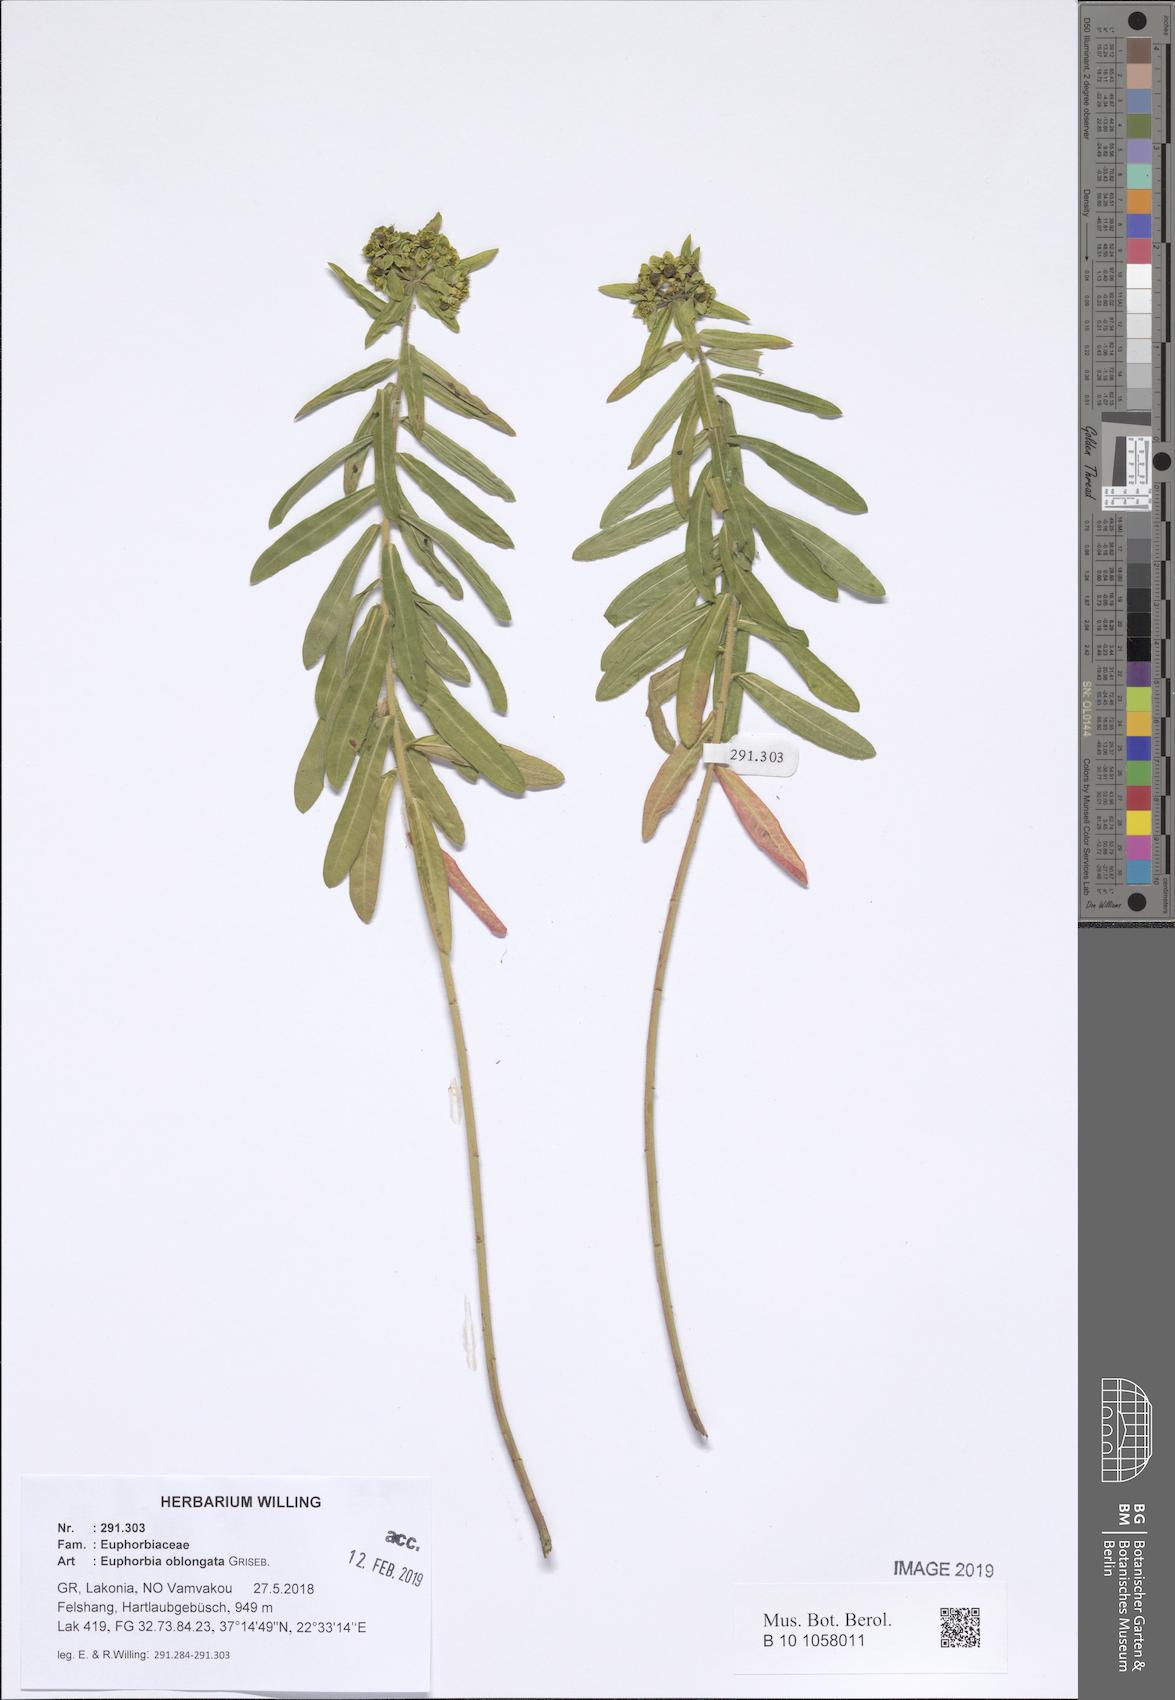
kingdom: Plantae
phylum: Tracheophyta
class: Magnoliopsida
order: Malpighiales
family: Euphorbiaceae
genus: Euphorbia
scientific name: Euphorbia oblongata
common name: Balkan spurge
